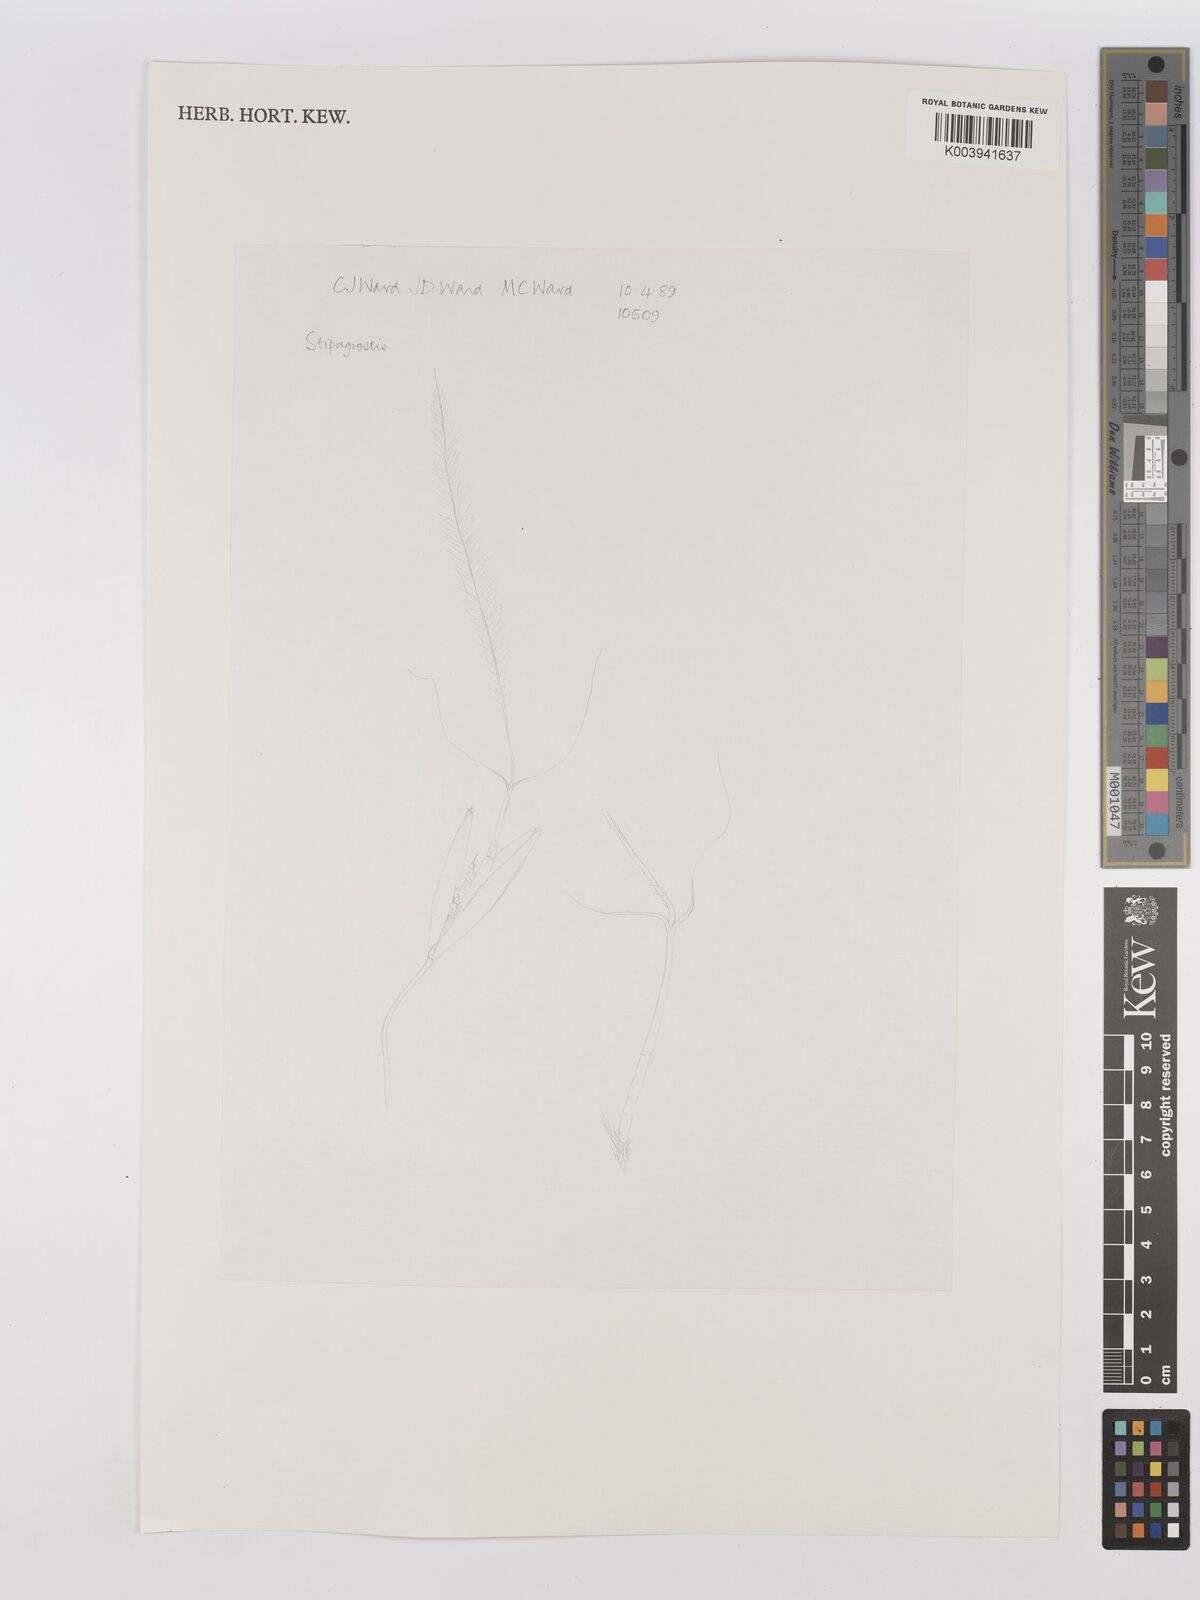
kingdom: Plantae
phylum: Tracheophyta
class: Liliopsida
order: Poales
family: Poaceae
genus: Stipagrostis
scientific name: Stipagrostis ciliata
